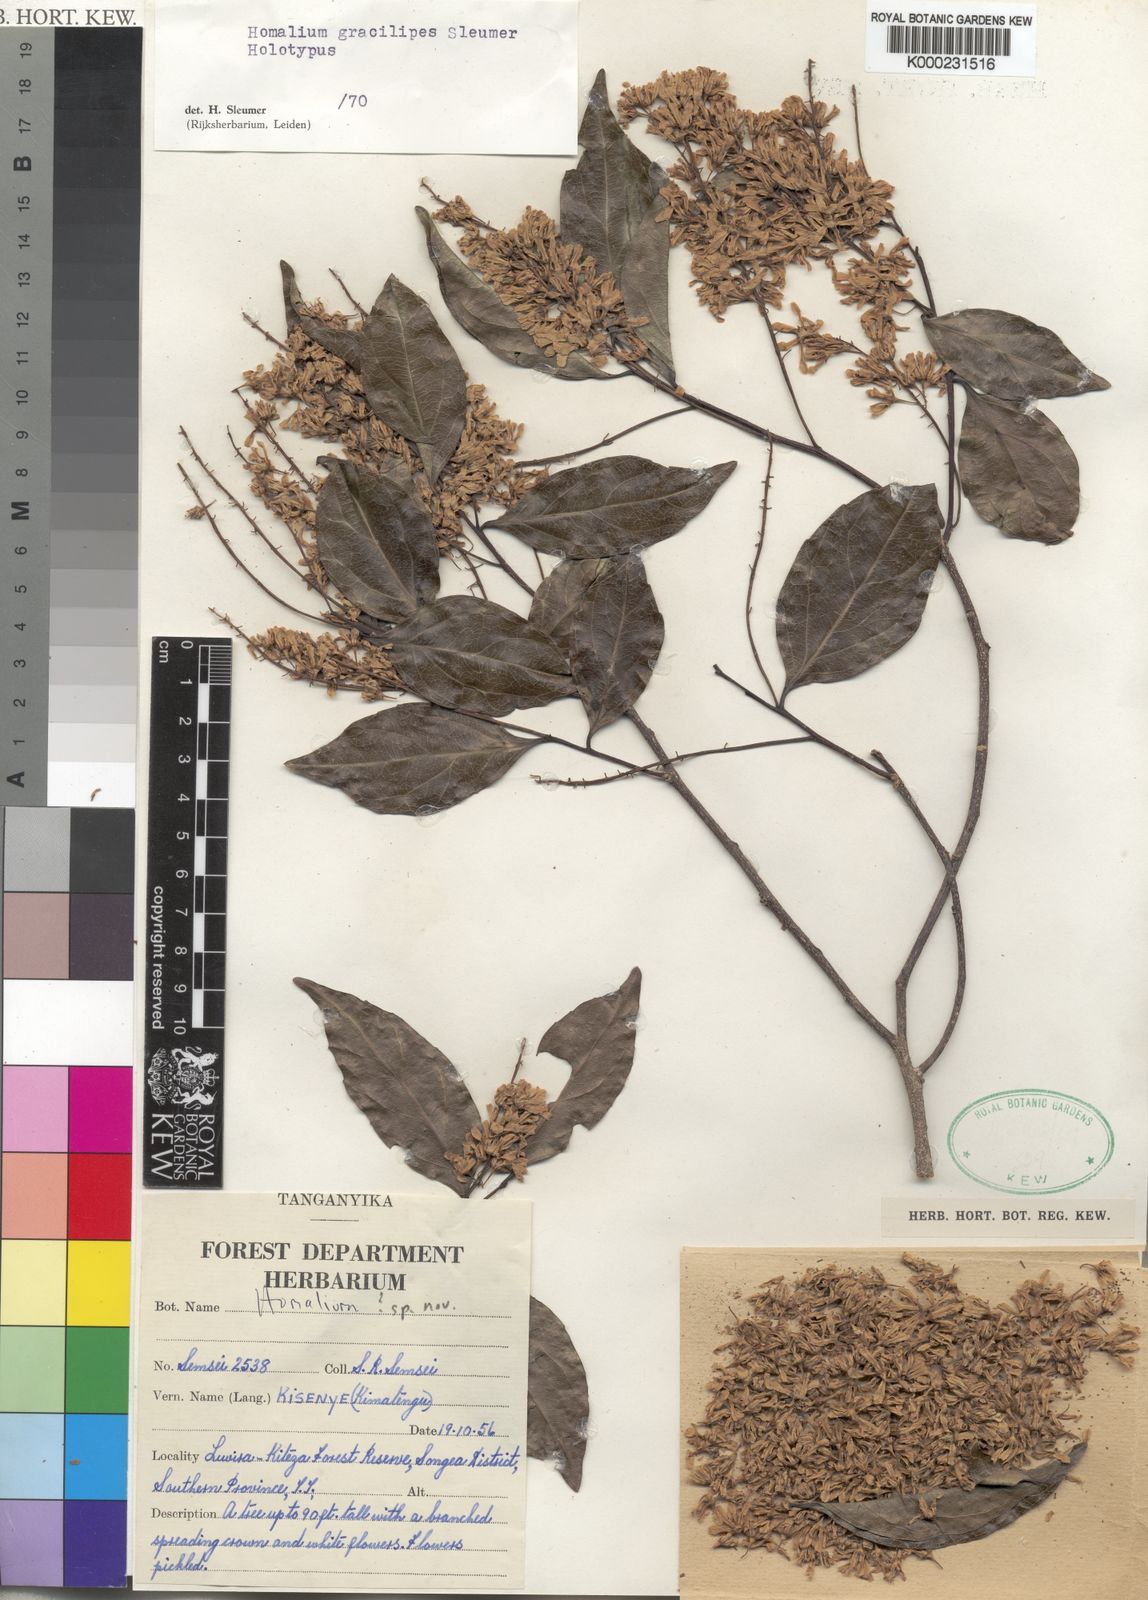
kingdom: Plantae
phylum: Tracheophyta
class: Magnoliopsida
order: Malpighiales
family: Salicaceae
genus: Homalium
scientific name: Homalium gracilipes
